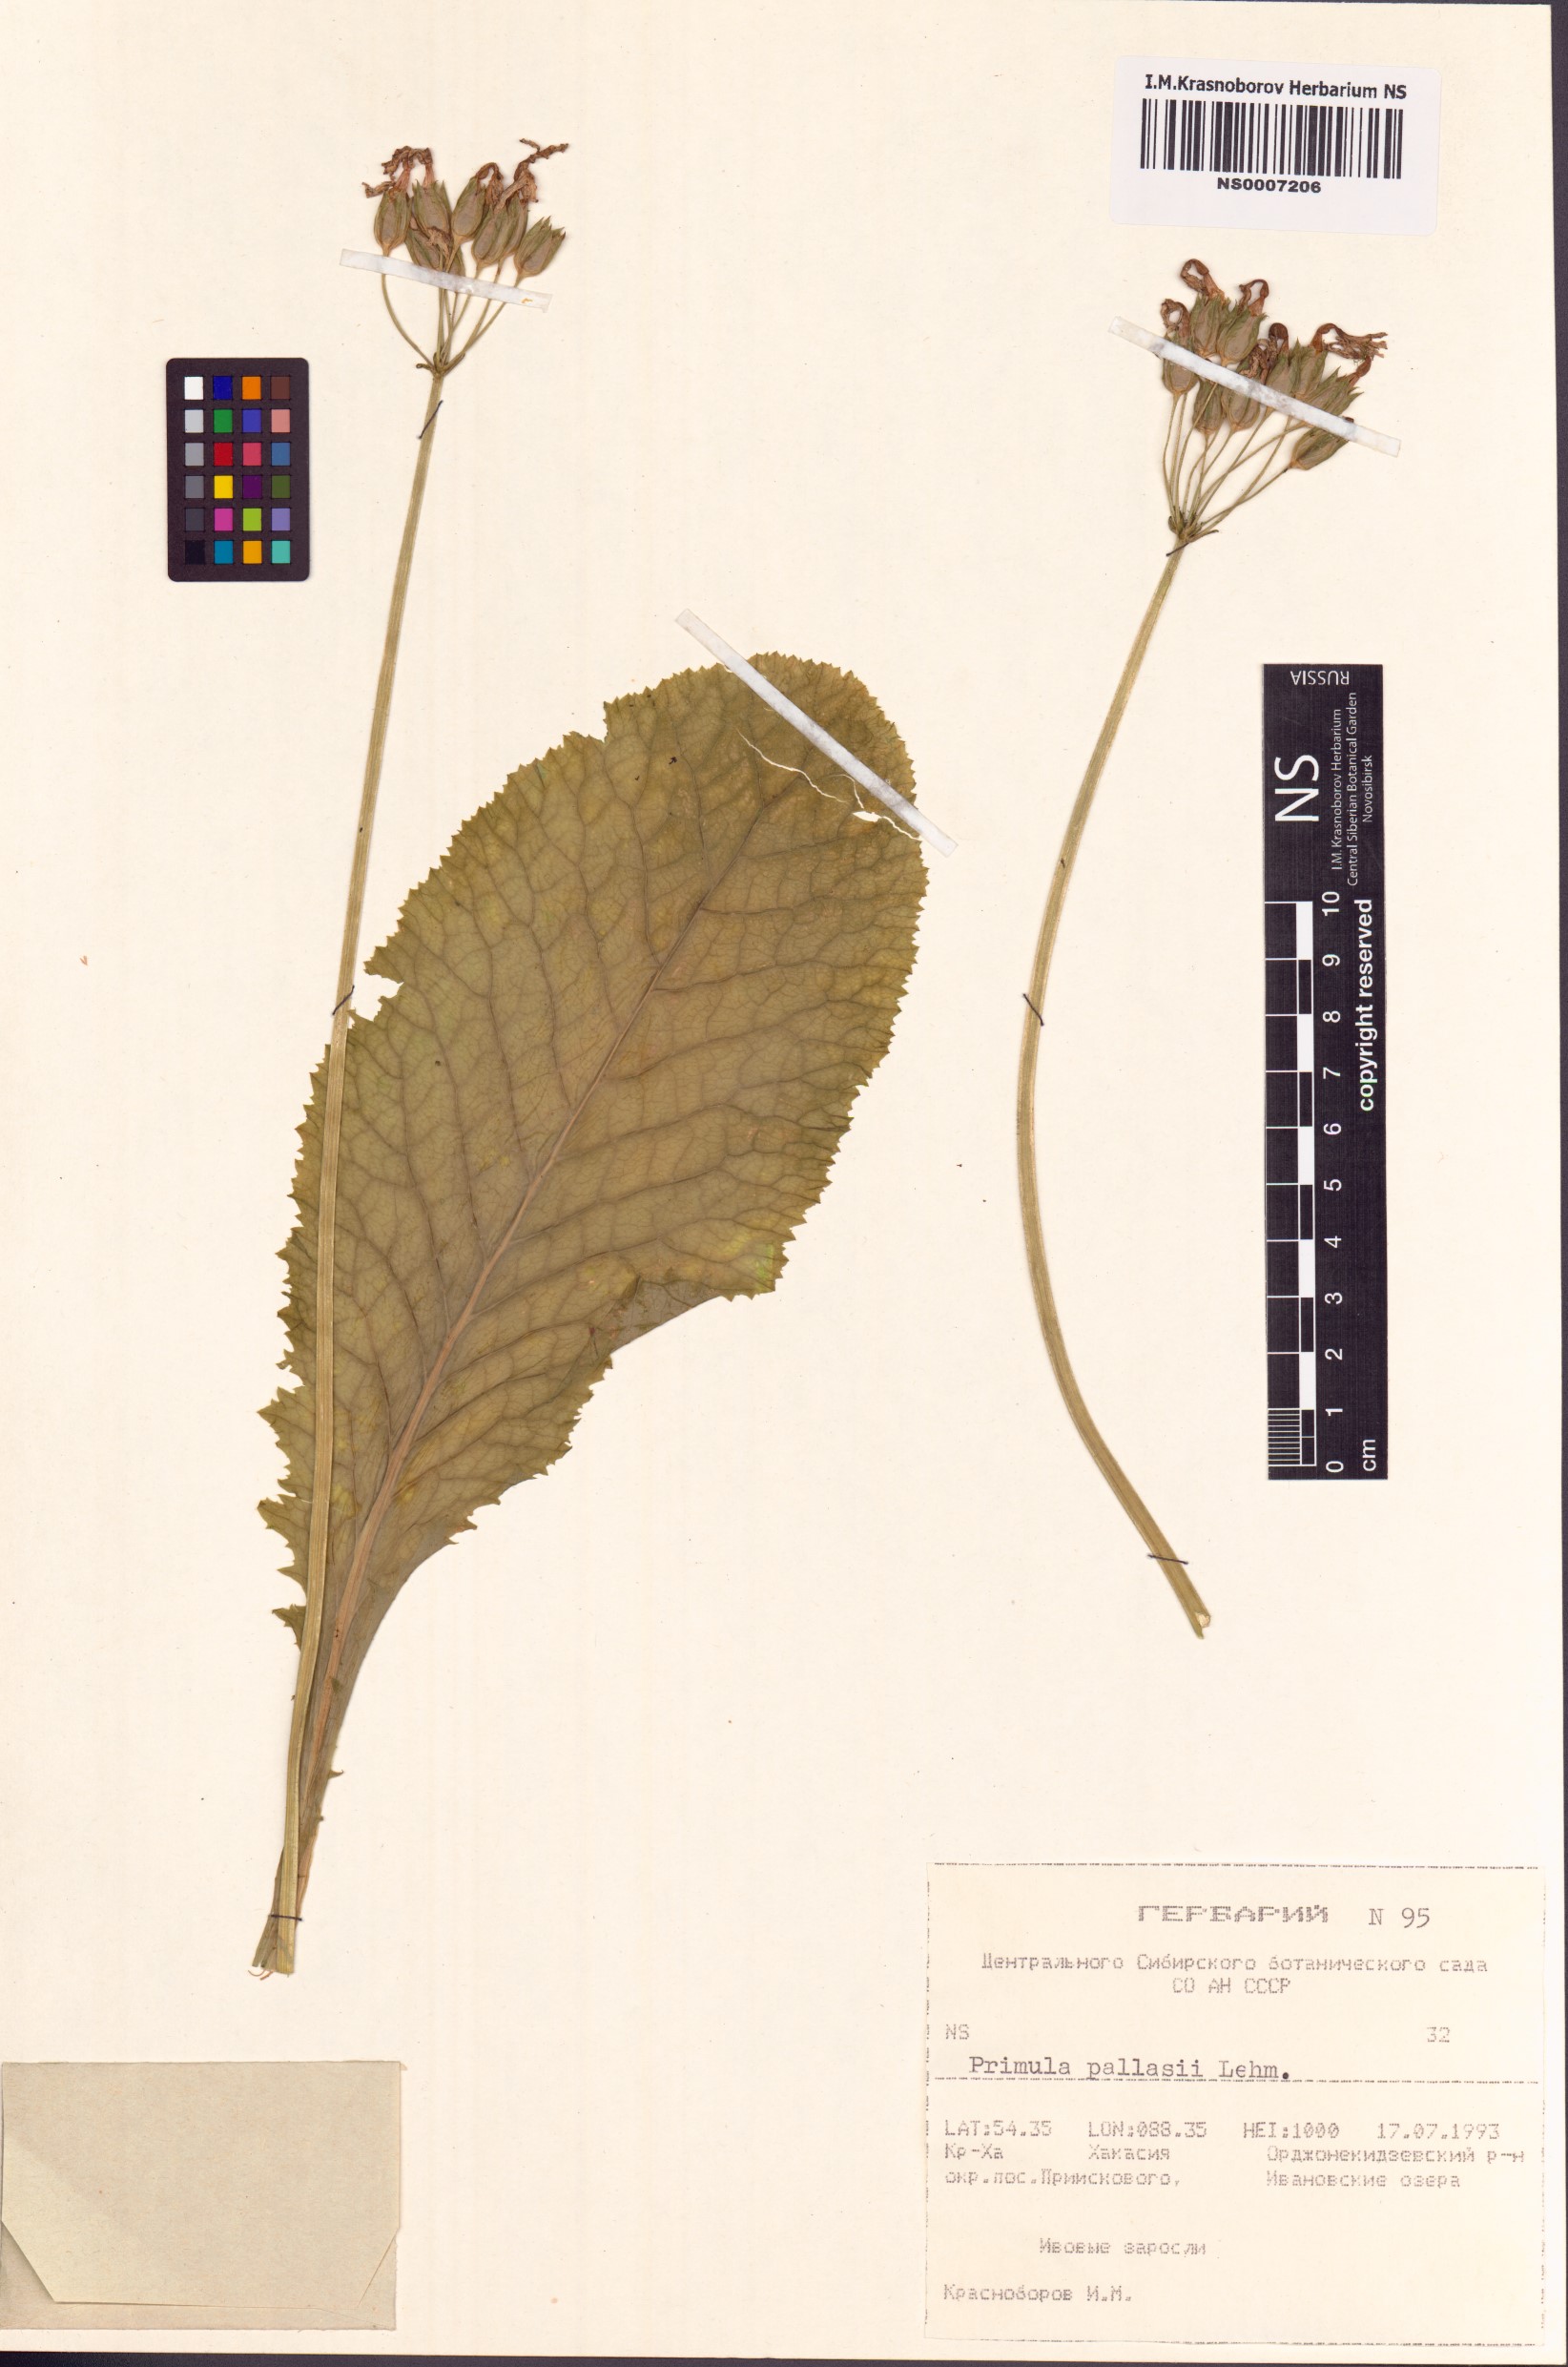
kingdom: Plantae
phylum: Tracheophyta
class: Magnoliopsida
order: Ericales
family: Primulaceae
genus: Primula
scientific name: Primula elatior
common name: Oxlip
